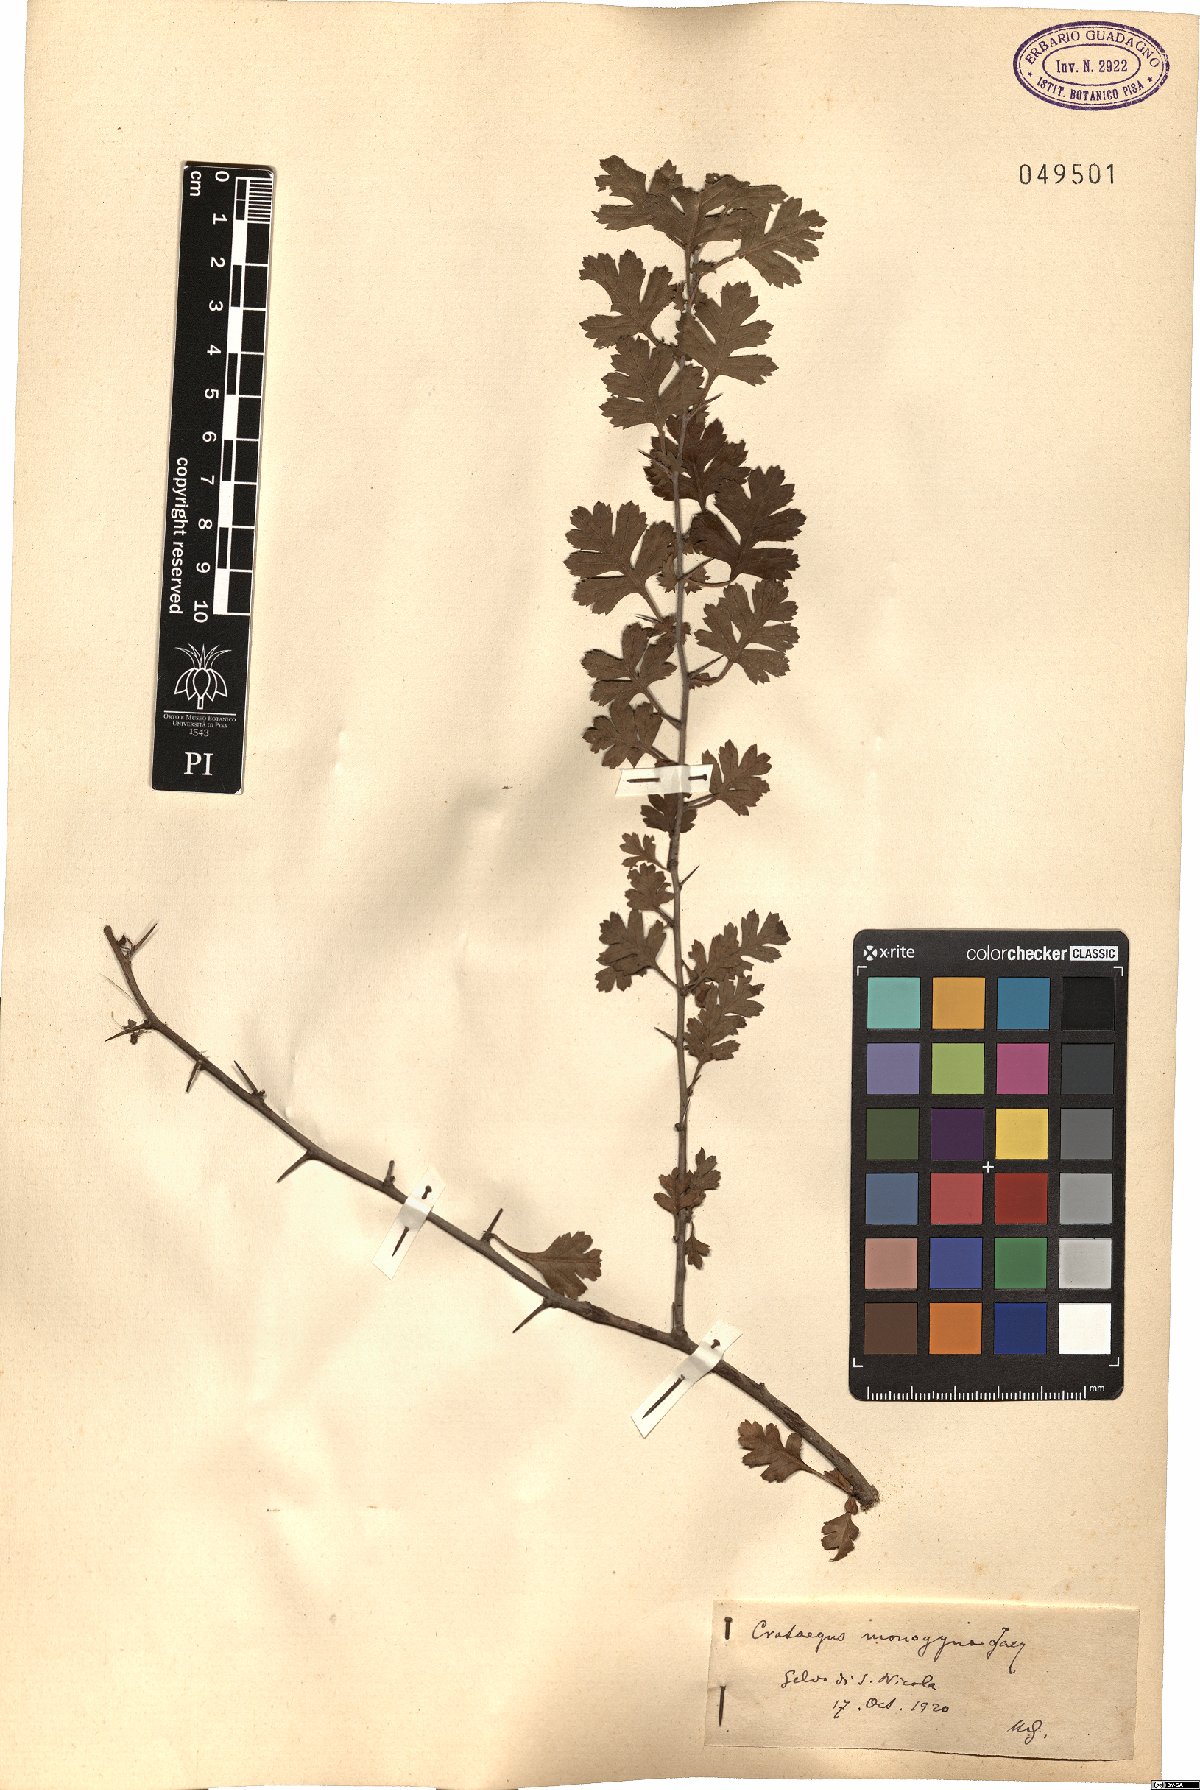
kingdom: Plantae
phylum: Tracheophyta
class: Magnoliopsida
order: Rosales
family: Rosaceae
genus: Crataegus
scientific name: Crataegus monogyna
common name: Hawthorn
